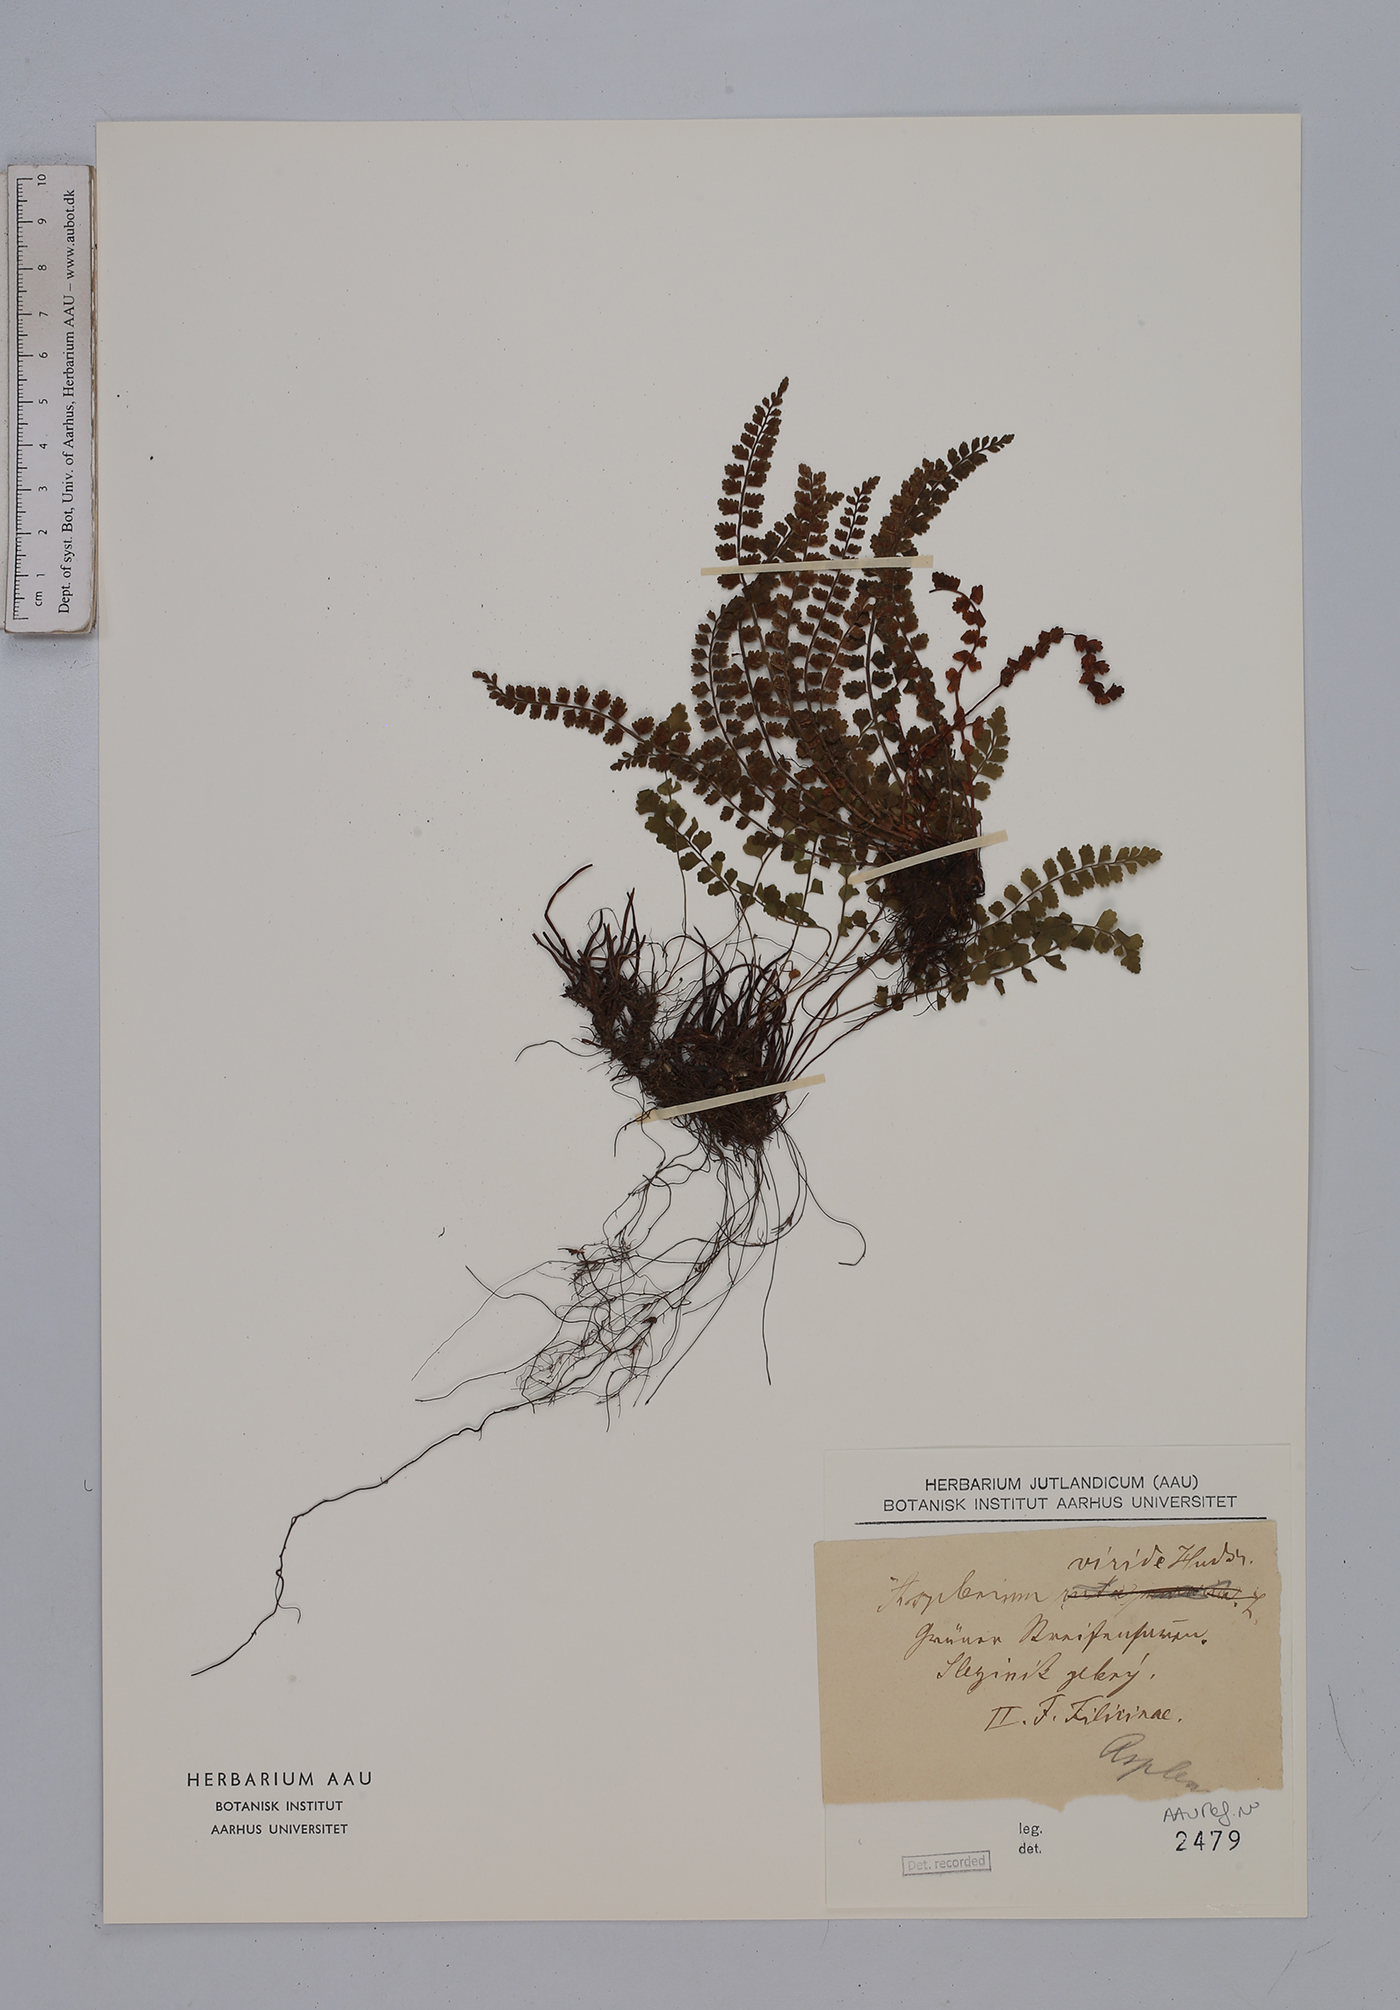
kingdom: Plantae
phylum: Tracheophyta
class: Polypodiopsida
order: Polypodiales
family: Aspleniaceae
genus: Asplenium
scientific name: Asplenium viride
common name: Green spleenwort
